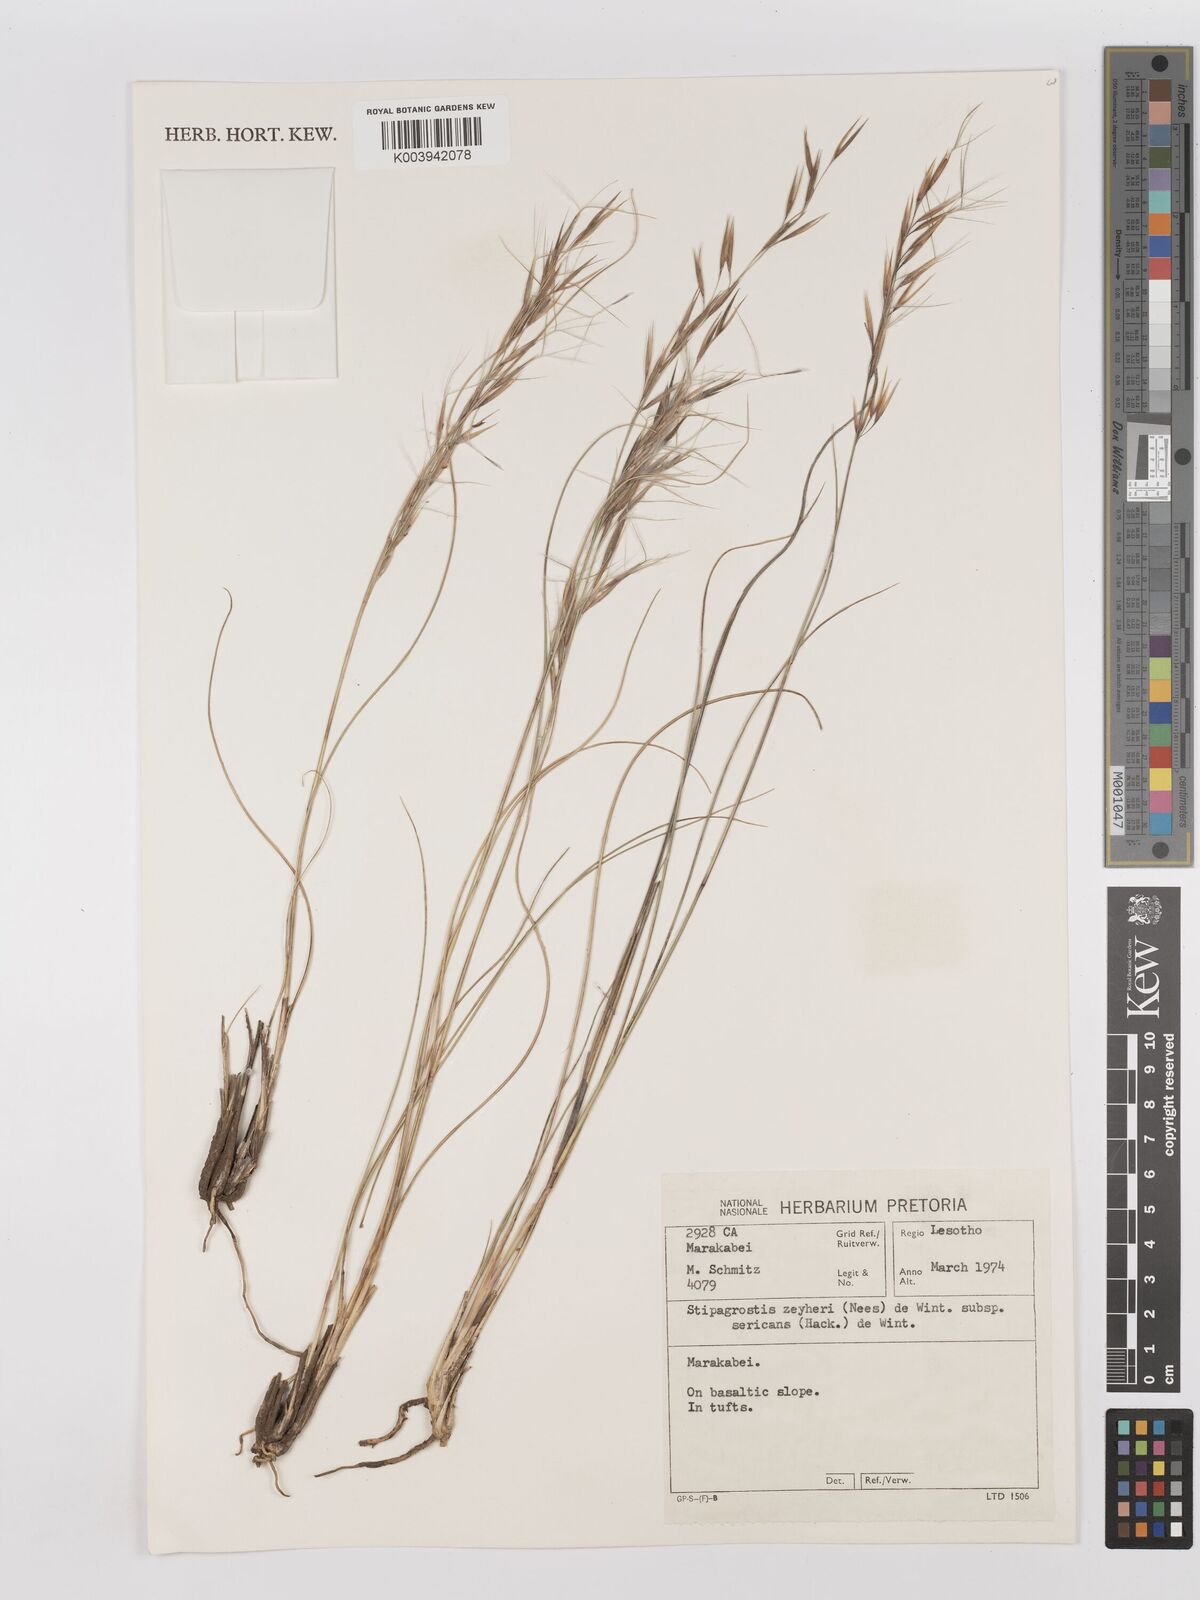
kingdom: Plantae
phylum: Tracheophyta
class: Liliopsida
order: Poales
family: Poaceae
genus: Stipagrostis
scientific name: Stipagrostis zeyheri
